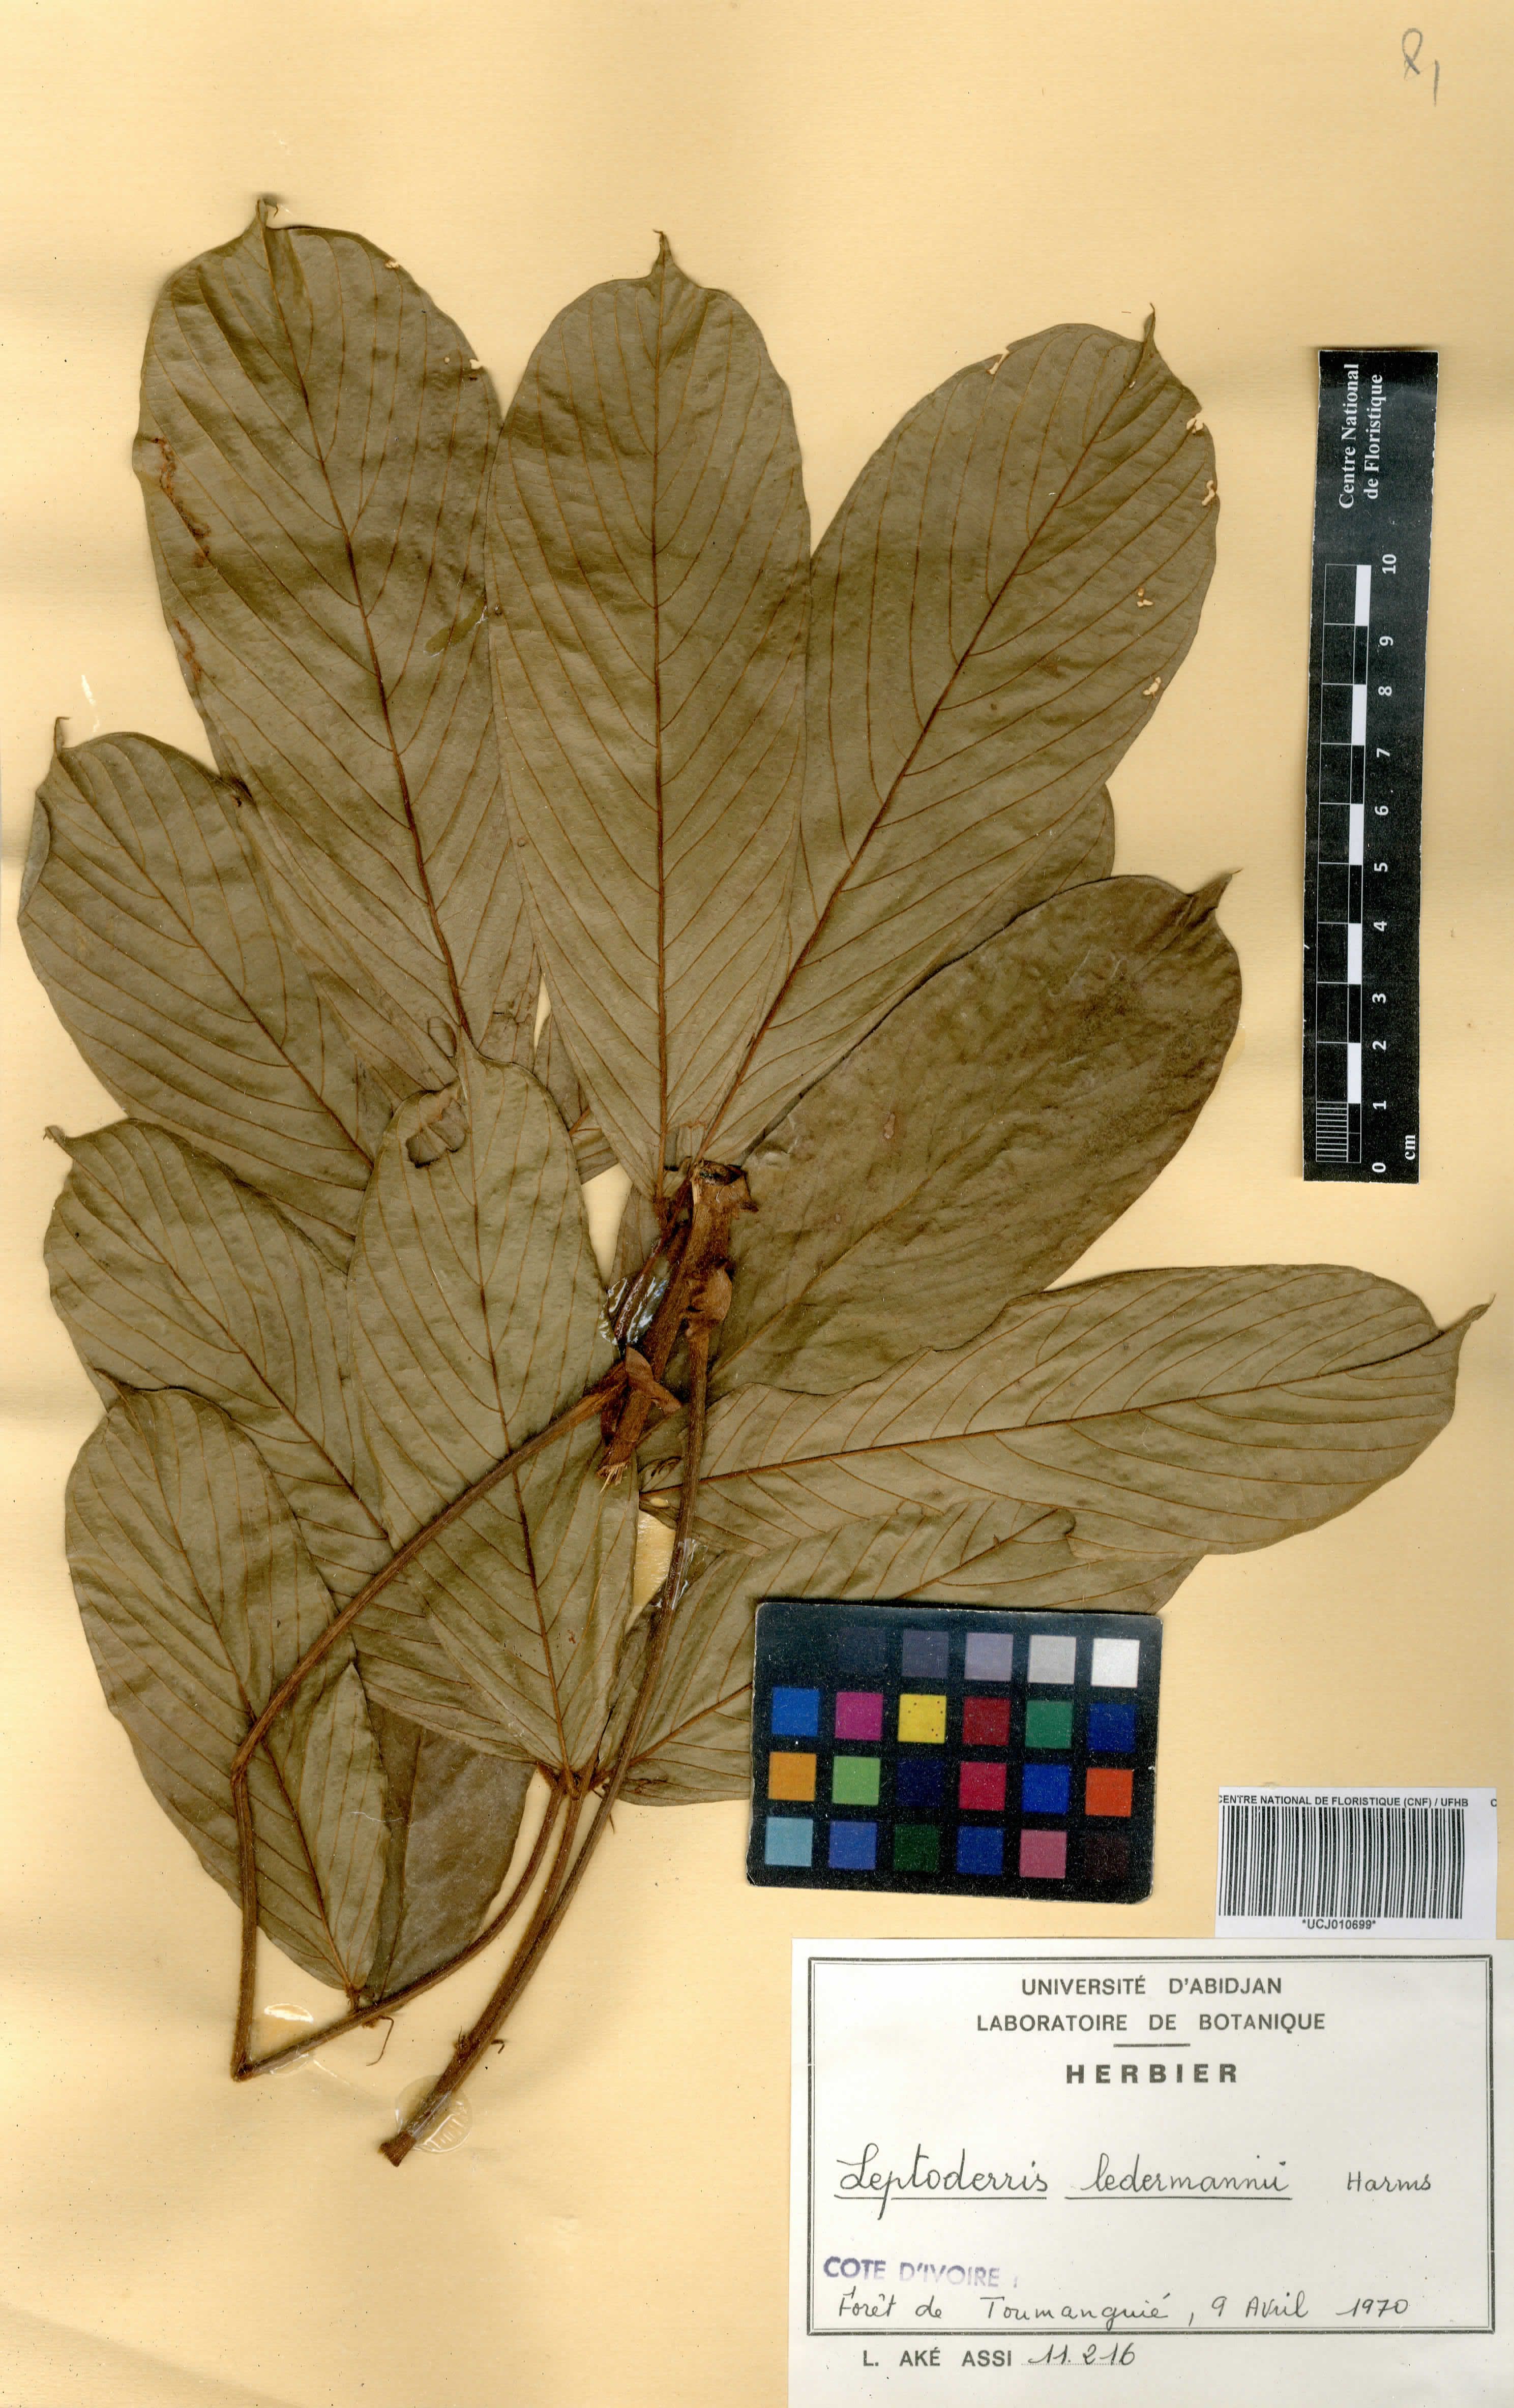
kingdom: Plantae
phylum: Tracheophyta
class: Magnoliopsida
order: Fabales
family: Fabaceae
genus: Leptoderris
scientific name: Leptoderris ledermannii
